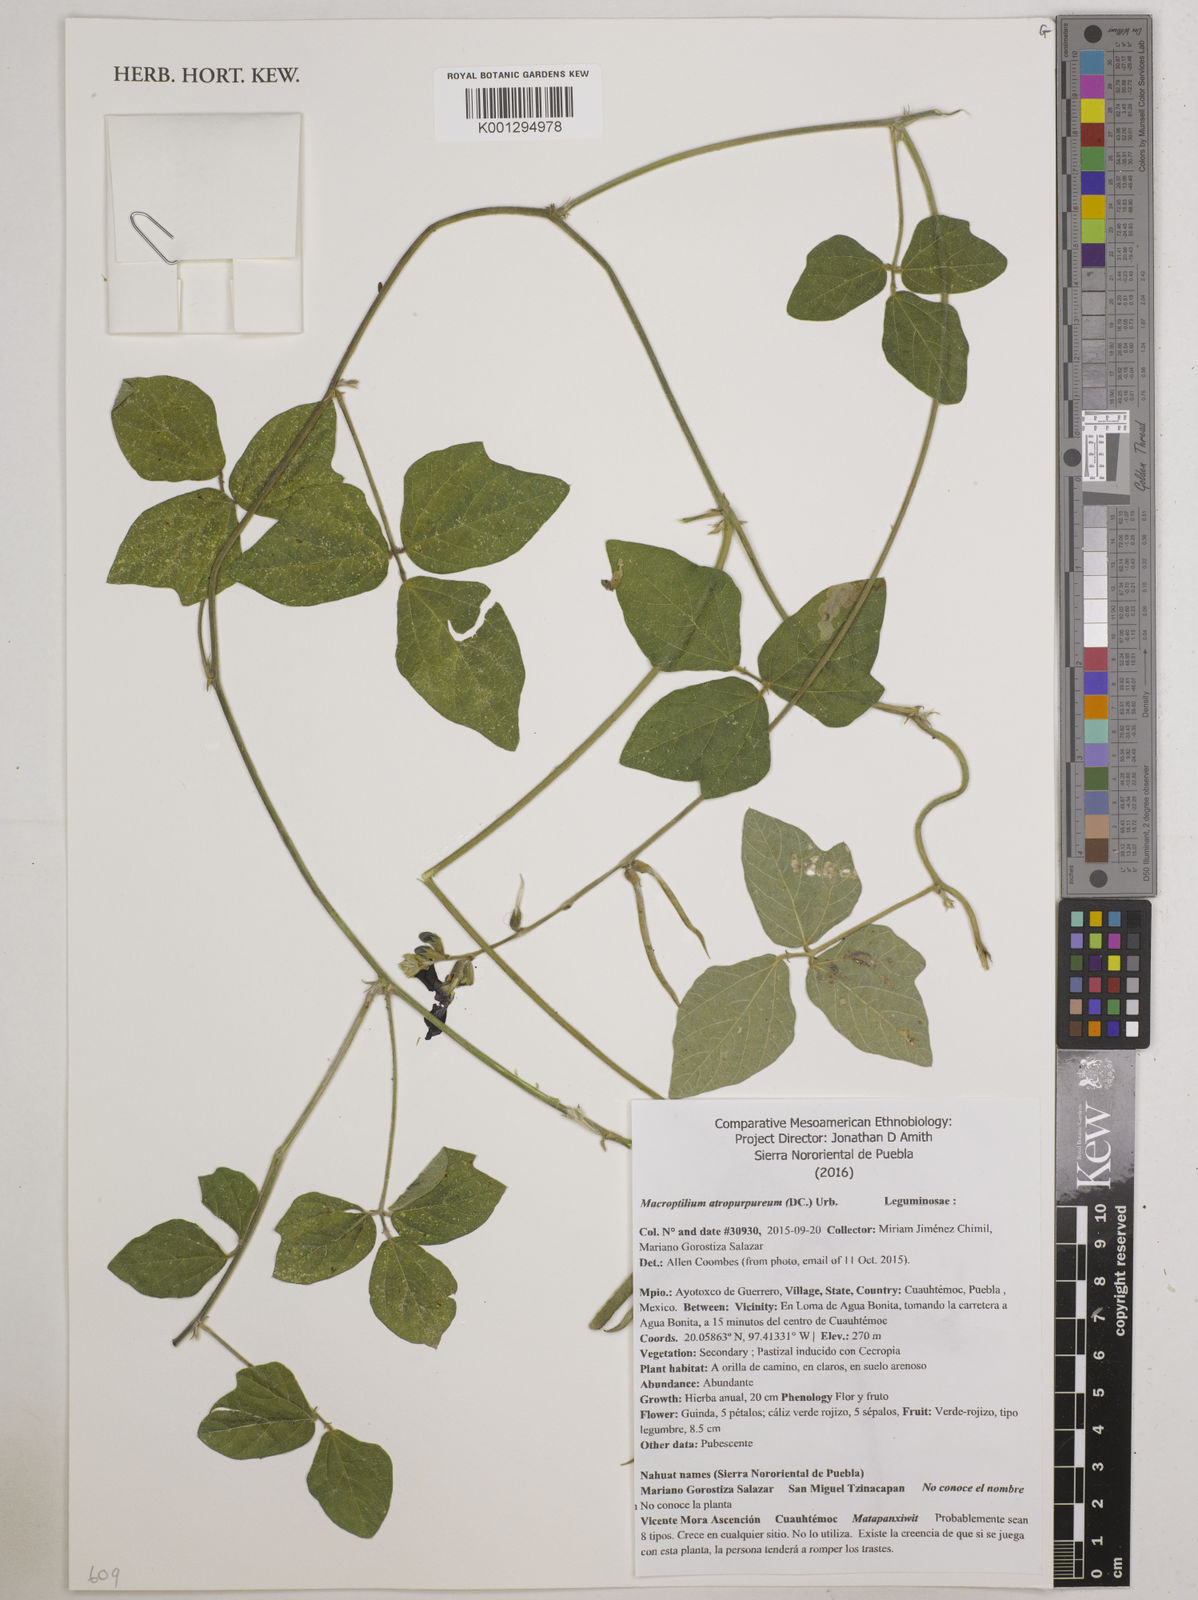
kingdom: Plantae
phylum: Tracheophyta
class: Magnoliopsida
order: Fabales
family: Fabaceae
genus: Macroptilium
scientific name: Macroptilium atropurpureum
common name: Purple bushbean
